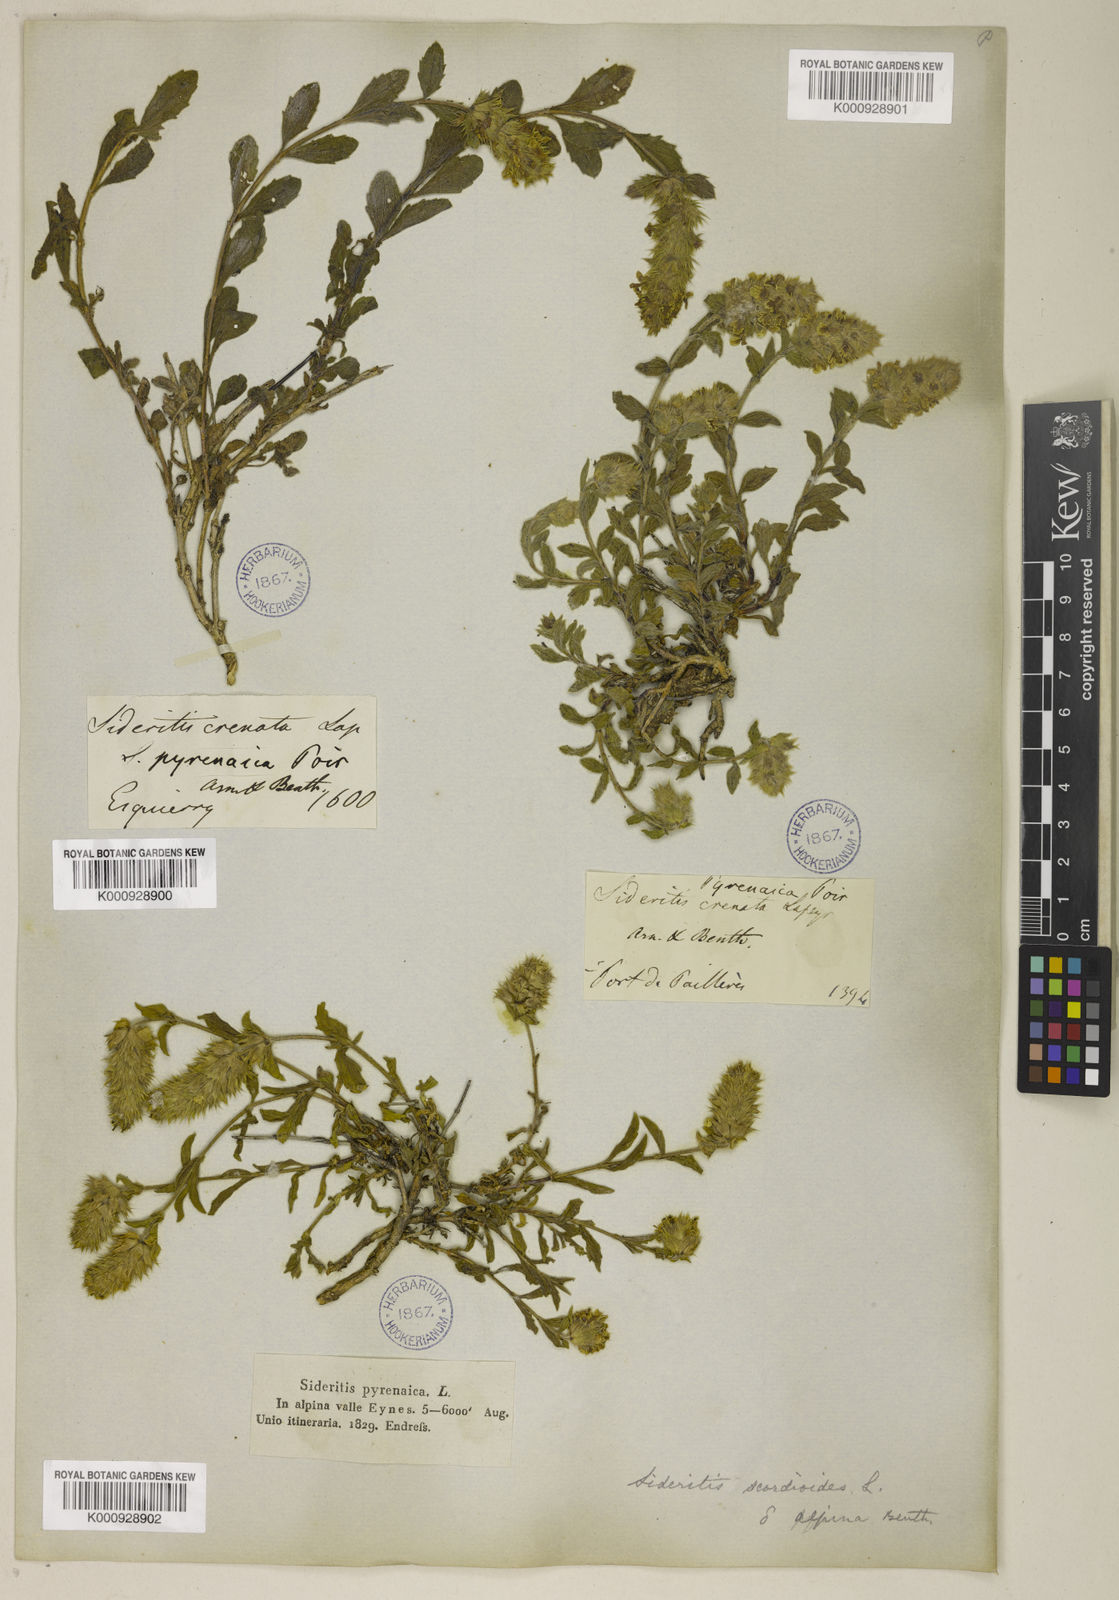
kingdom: Plantae
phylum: Tracheophyta
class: Magnoliopsida
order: Lamiales
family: Lamiaceae
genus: Sideritis
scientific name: Sideritis hyssopifolia
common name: Mountain tea
